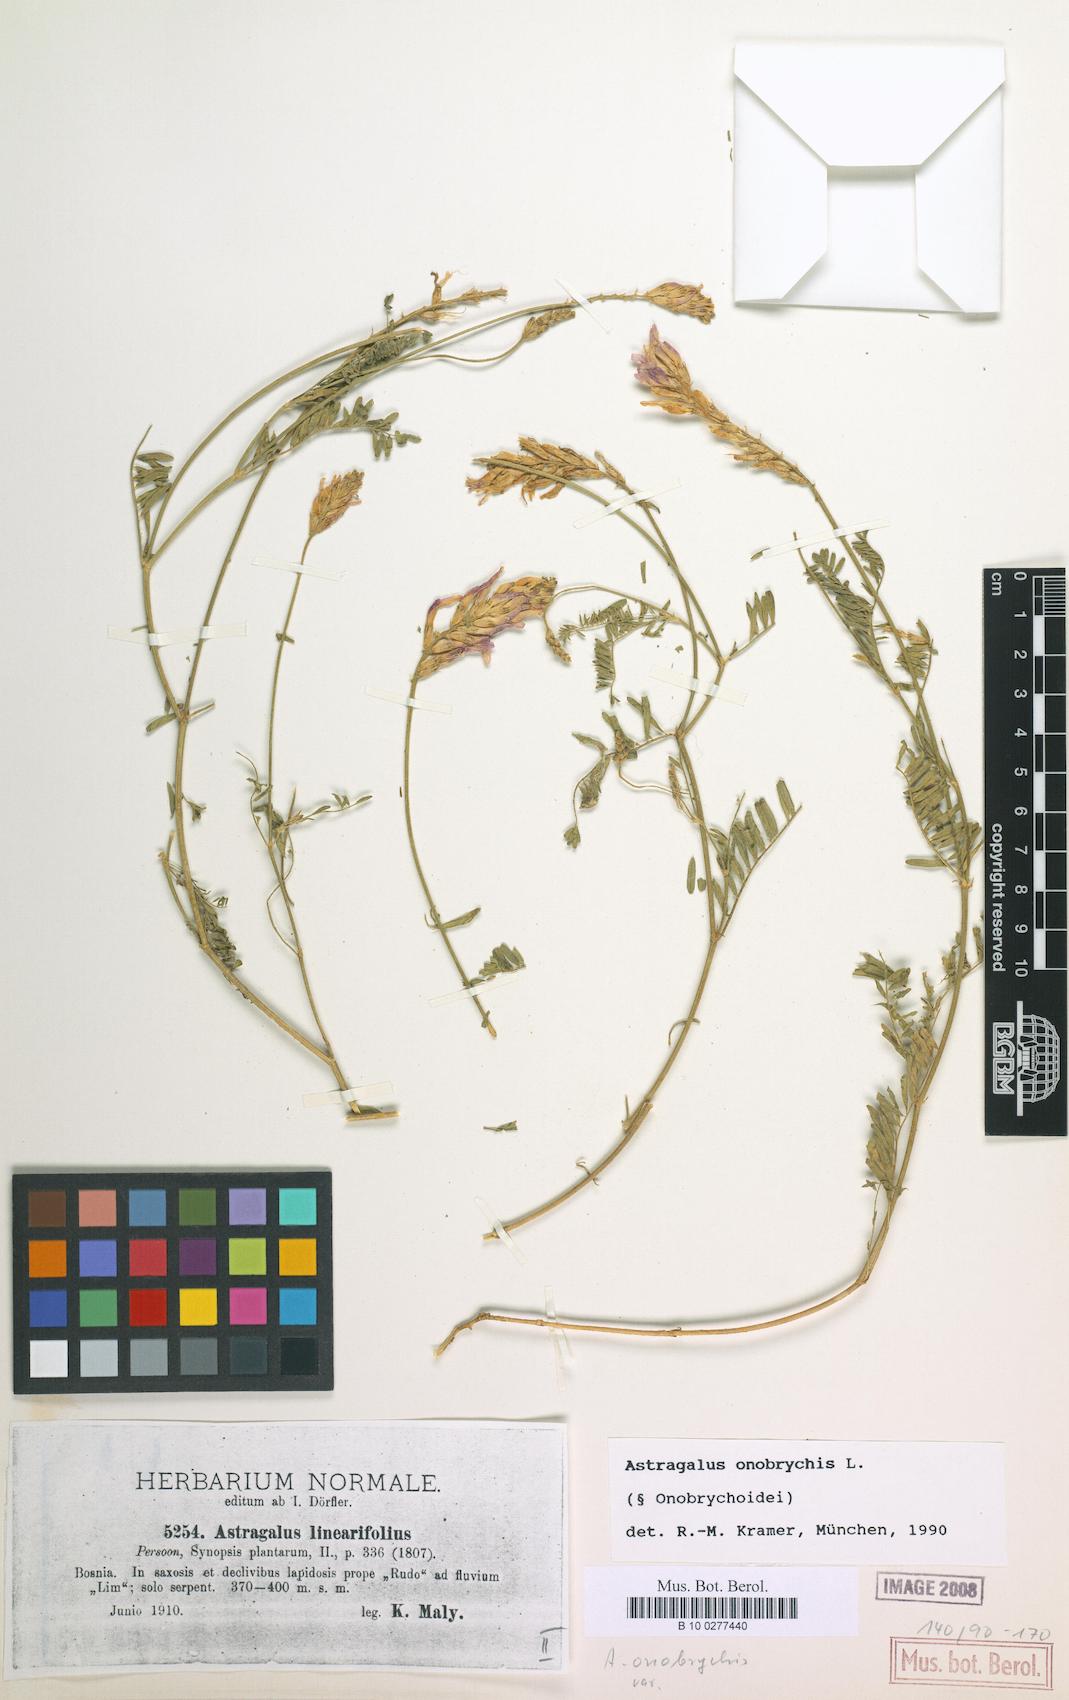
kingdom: Plantae
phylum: Tracheophyta
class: Magnoliopsida
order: Fabales
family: Fabaceae
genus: Astragalus
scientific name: Astragalus onobrychis
